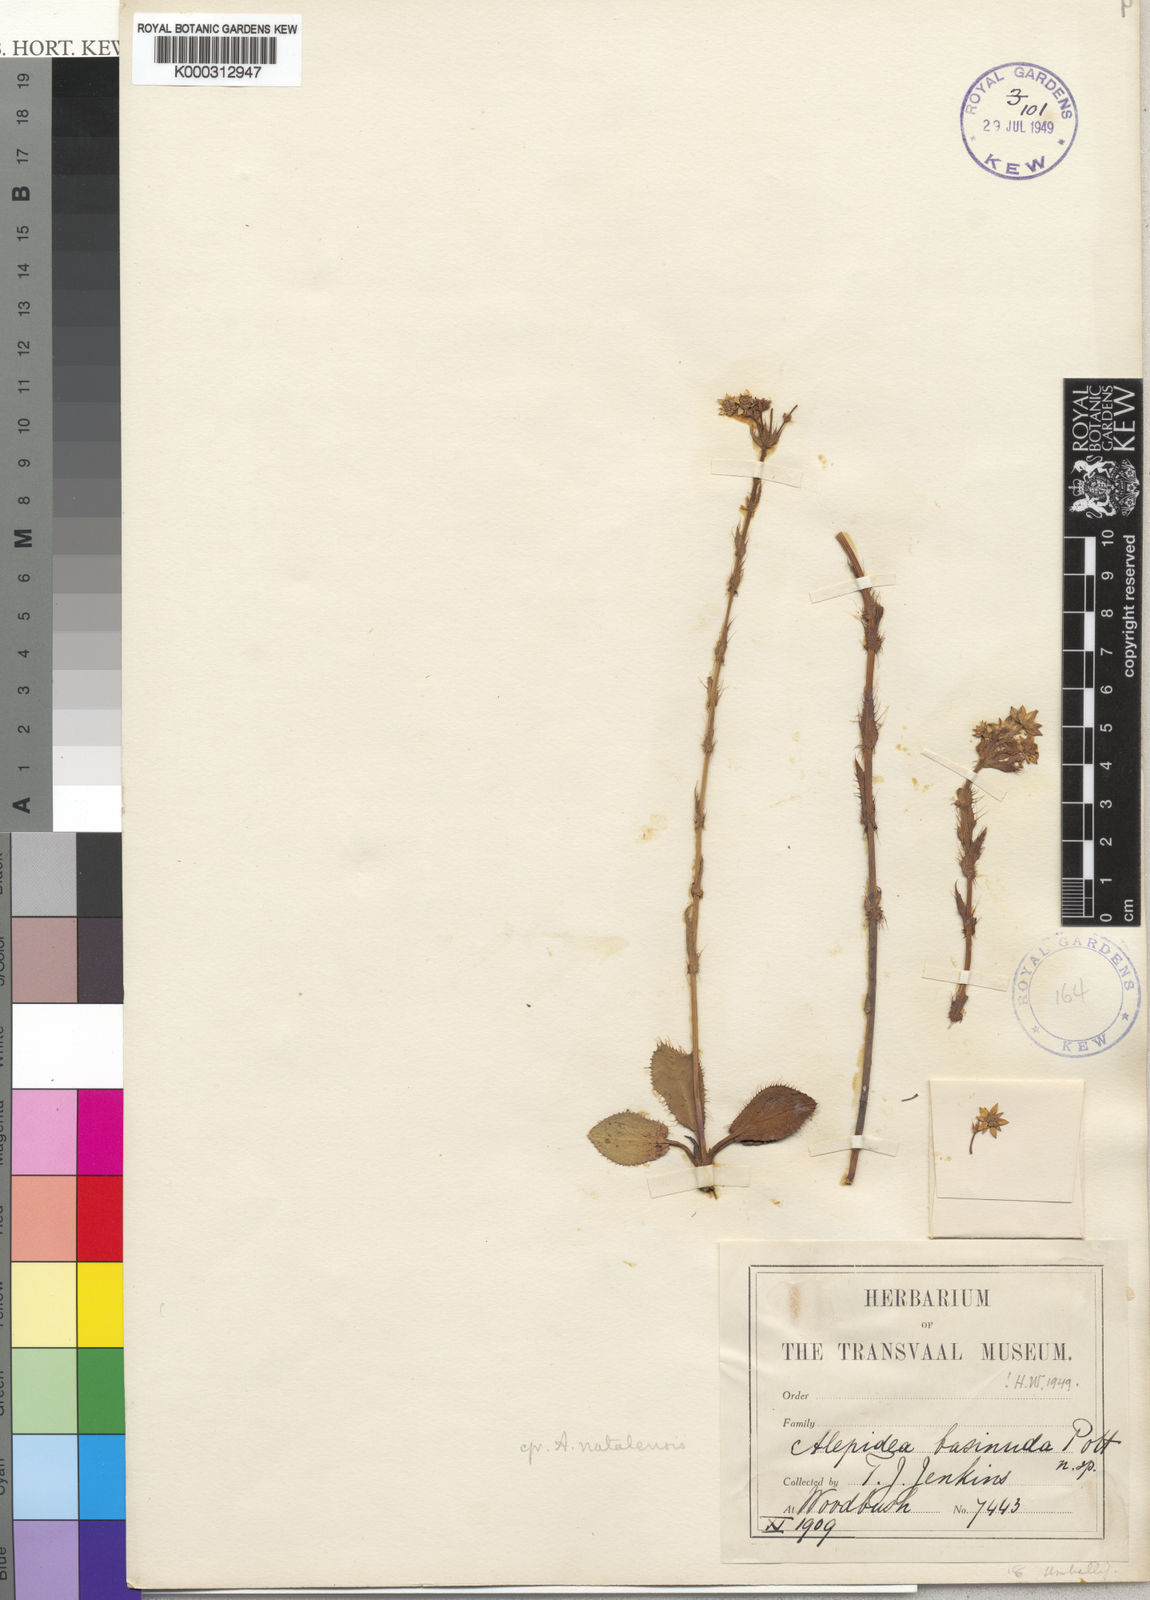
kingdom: Plantae
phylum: Tracheophyta
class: Magnoliopsida
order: Apiales
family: Apiaceae
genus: Alepidea
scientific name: Alepidea setifera
